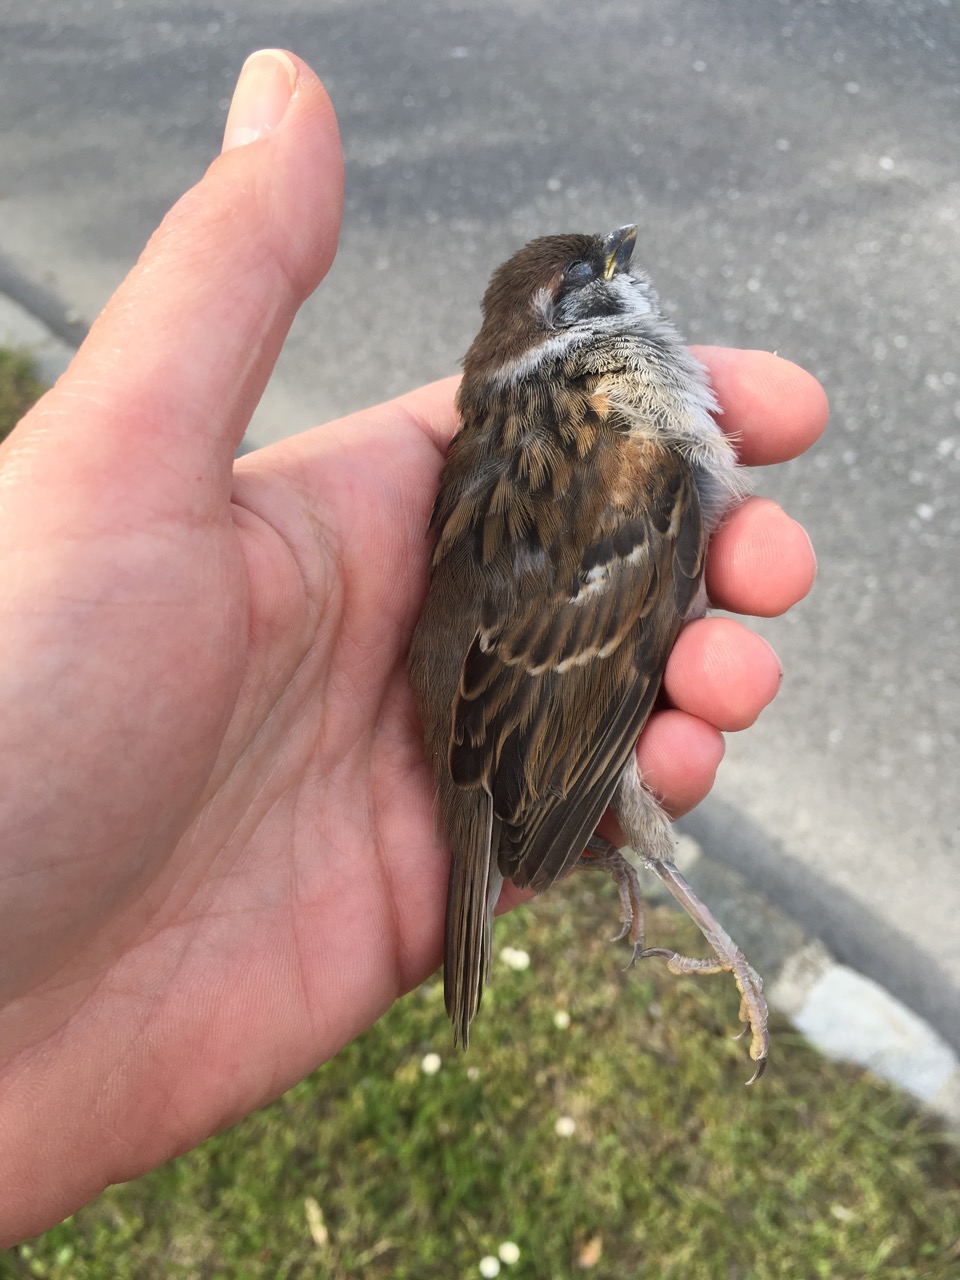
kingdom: Animalia
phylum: Chordata
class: Aves
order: Passeriformes
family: Passeridae
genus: Passer
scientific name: Passer montanus
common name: Eurasian tree sparrow
